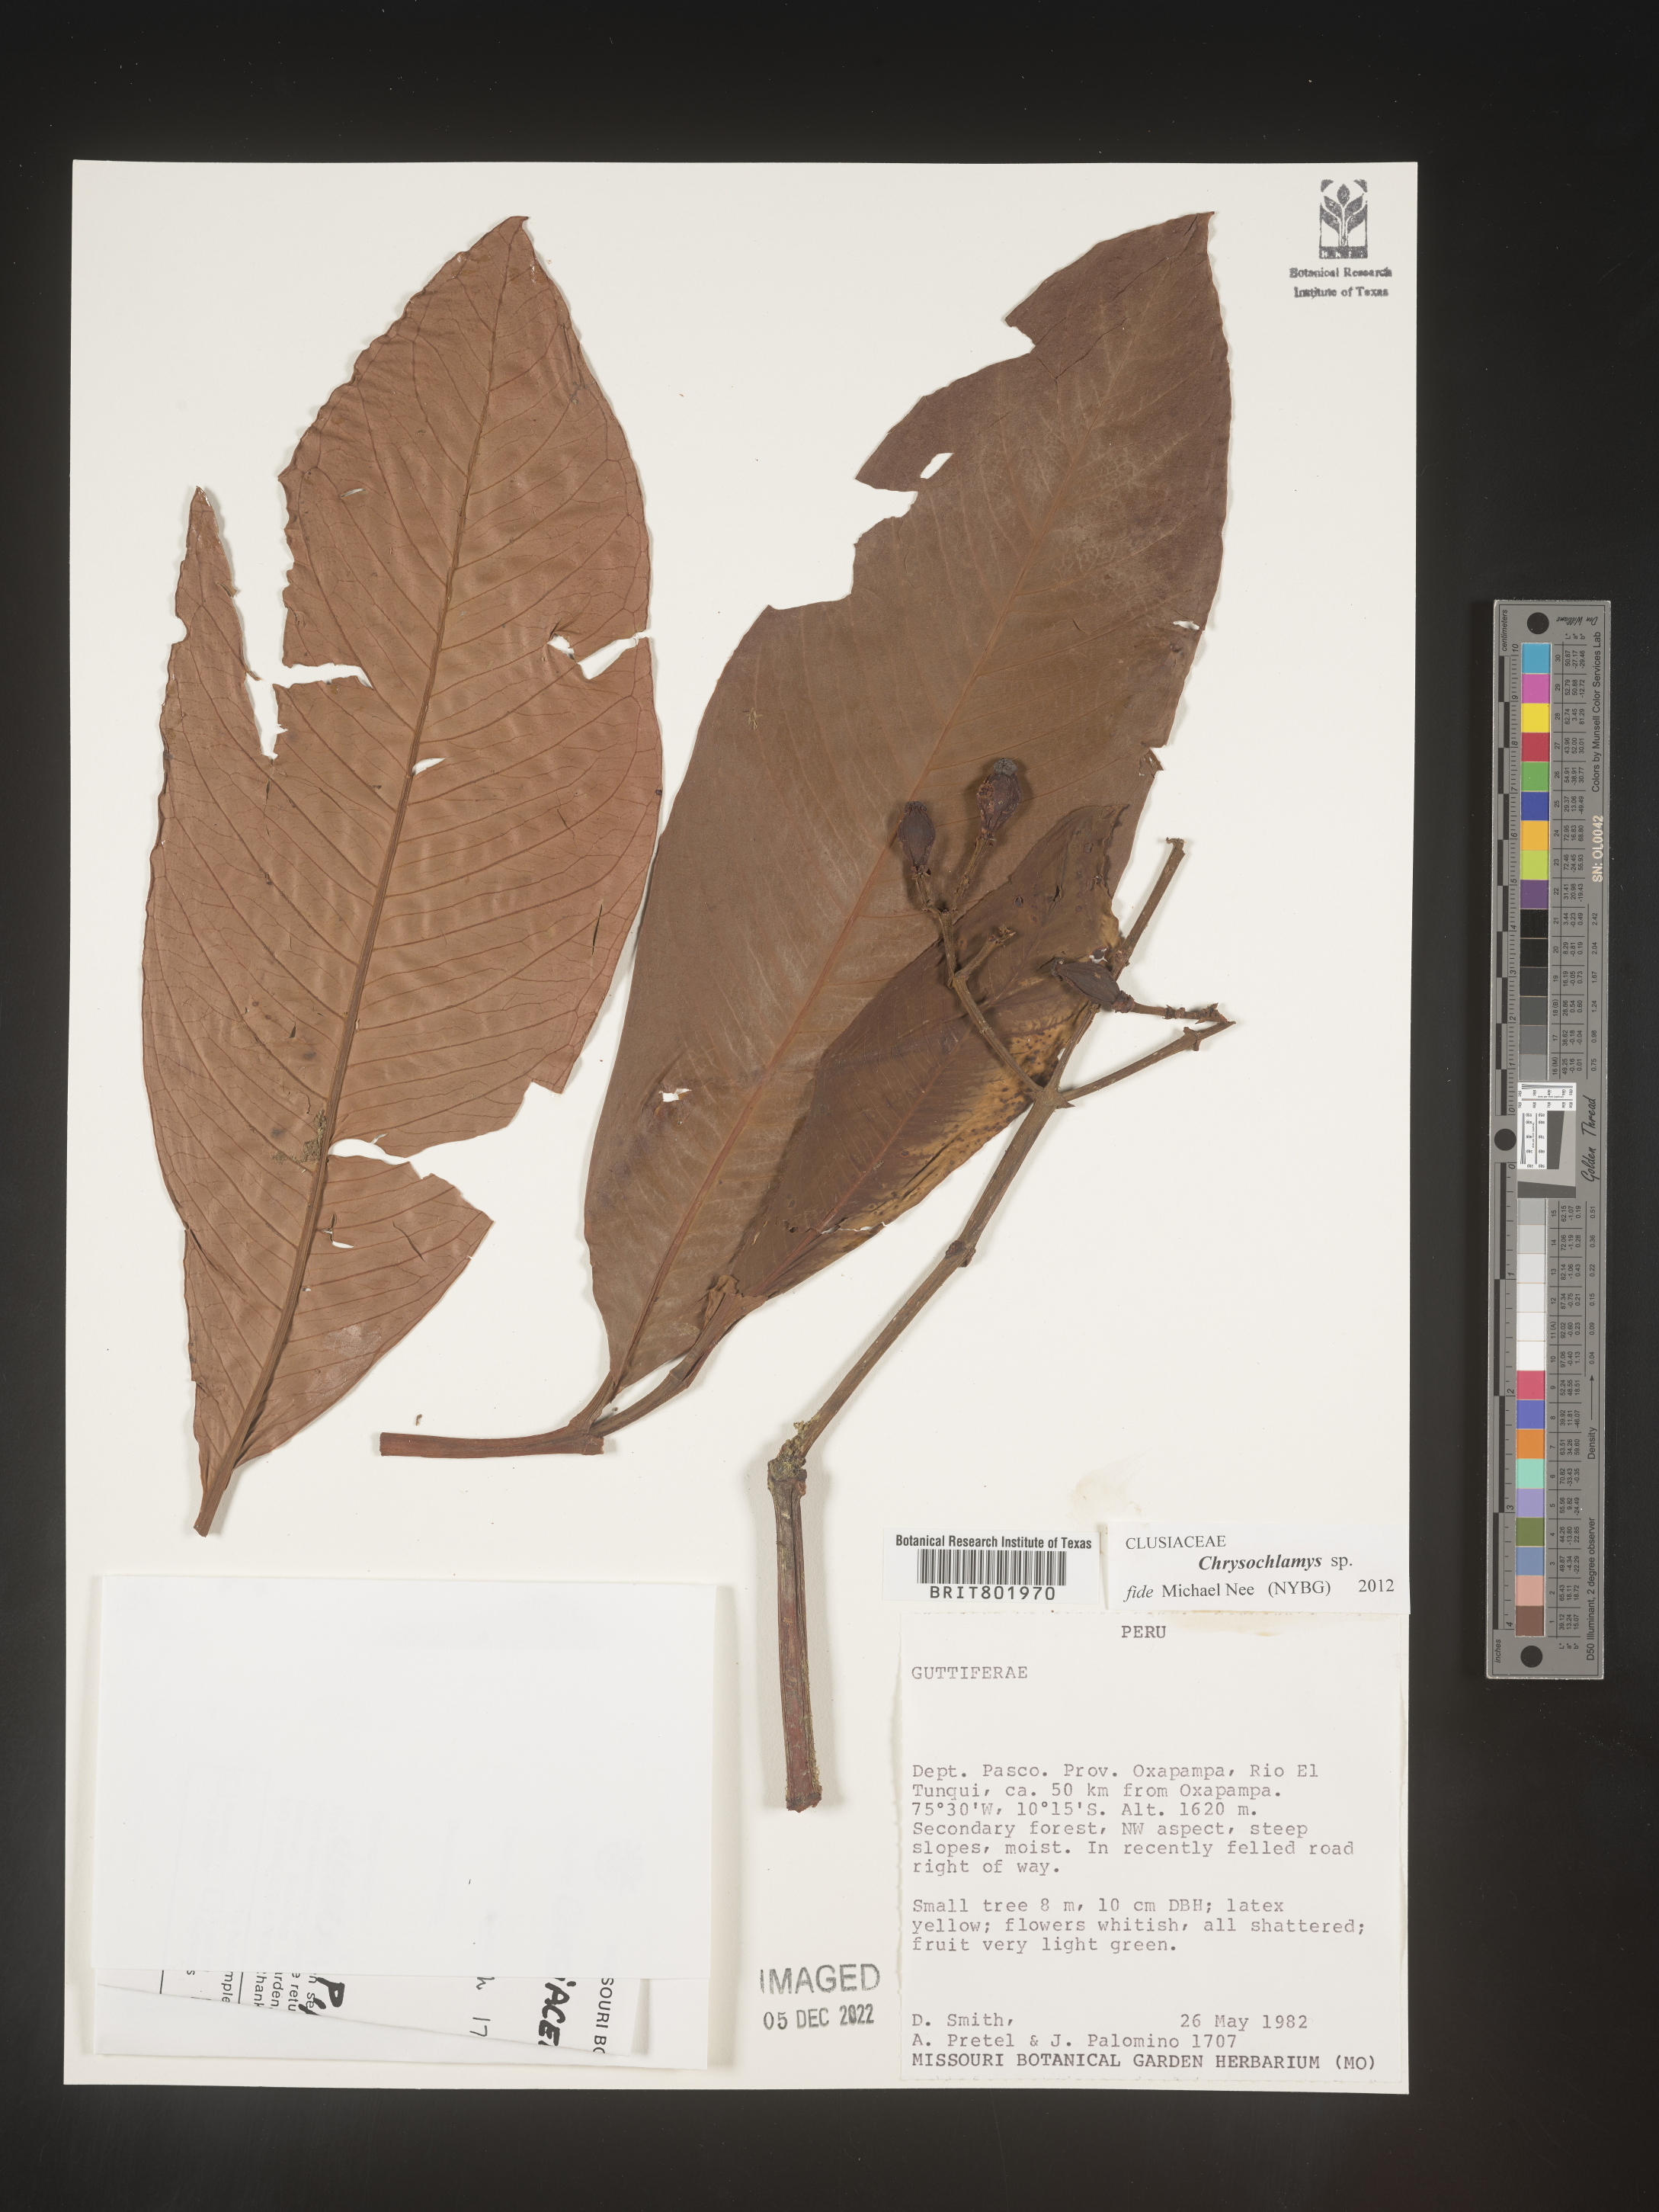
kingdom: Plantae
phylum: Tracheophyta
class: Magnoliopsida
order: Malpighiales
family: Clusiaceae
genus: Chrysochlamys
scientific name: Chrysochlamys
